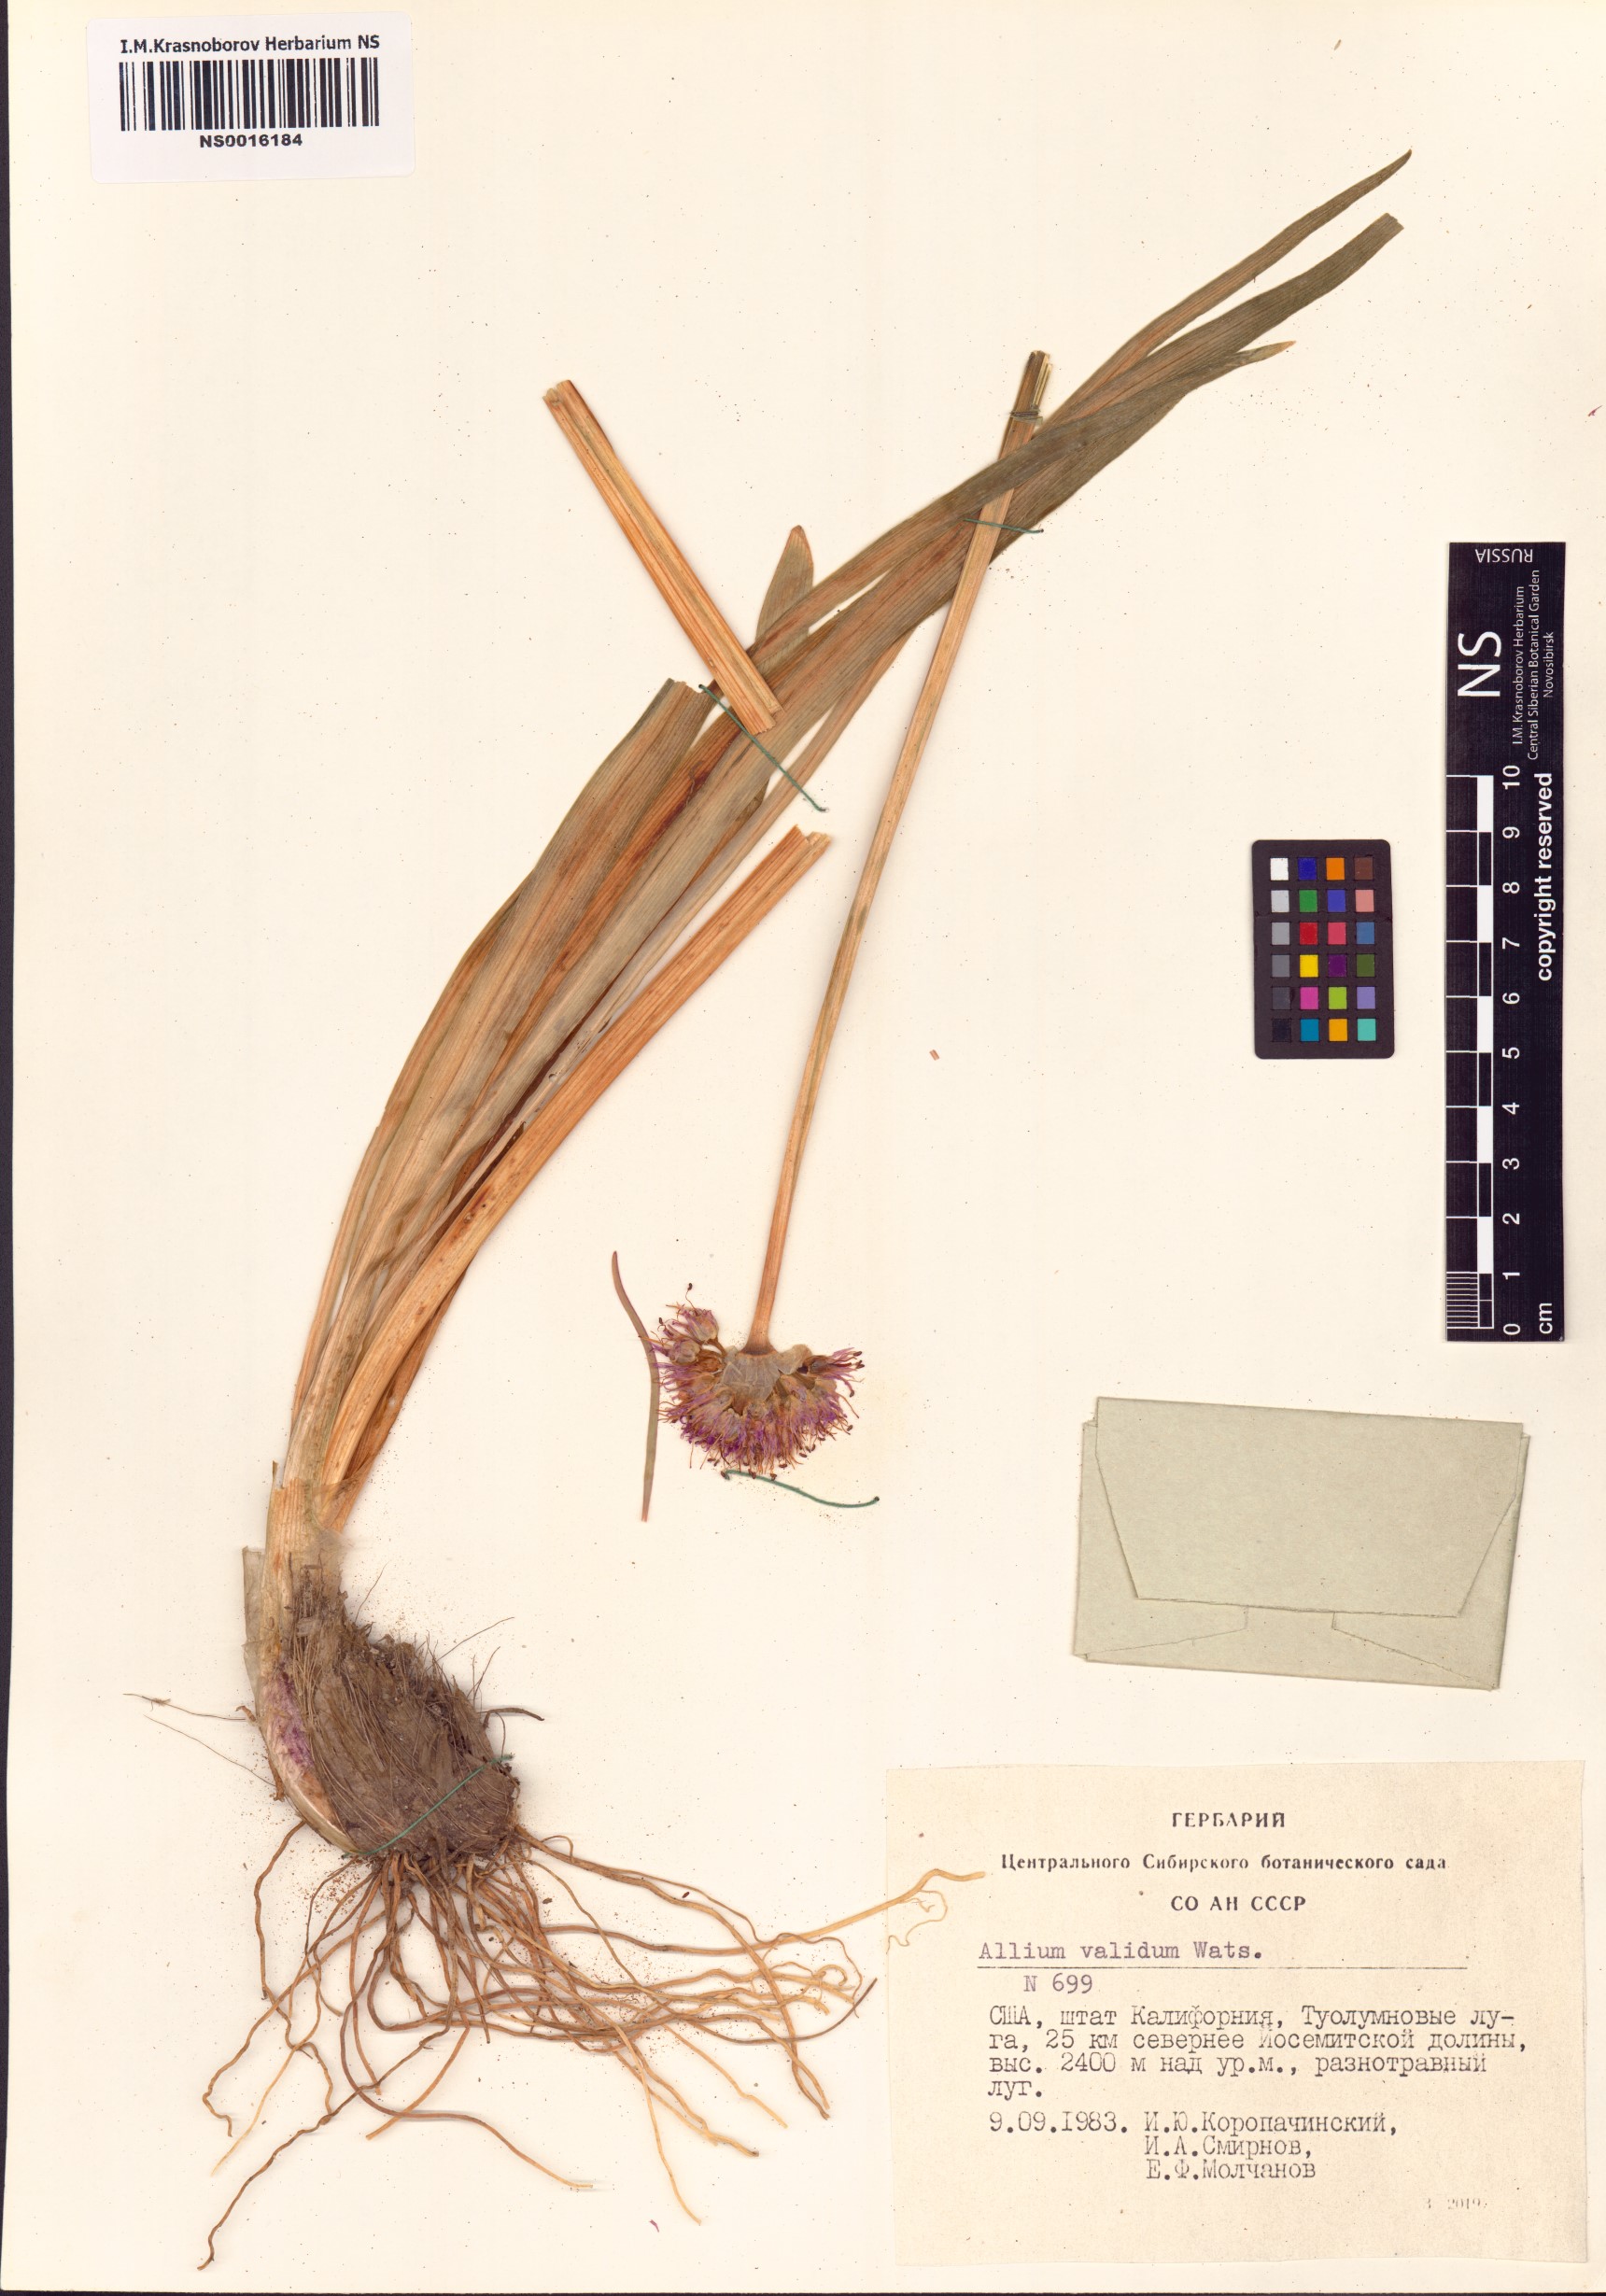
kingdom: Plantae
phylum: Tracheophyta
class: Liliopsida
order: Asparagales
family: Amaryllidaceae
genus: Allium
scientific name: Allium validum
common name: Pacific mountain onion
